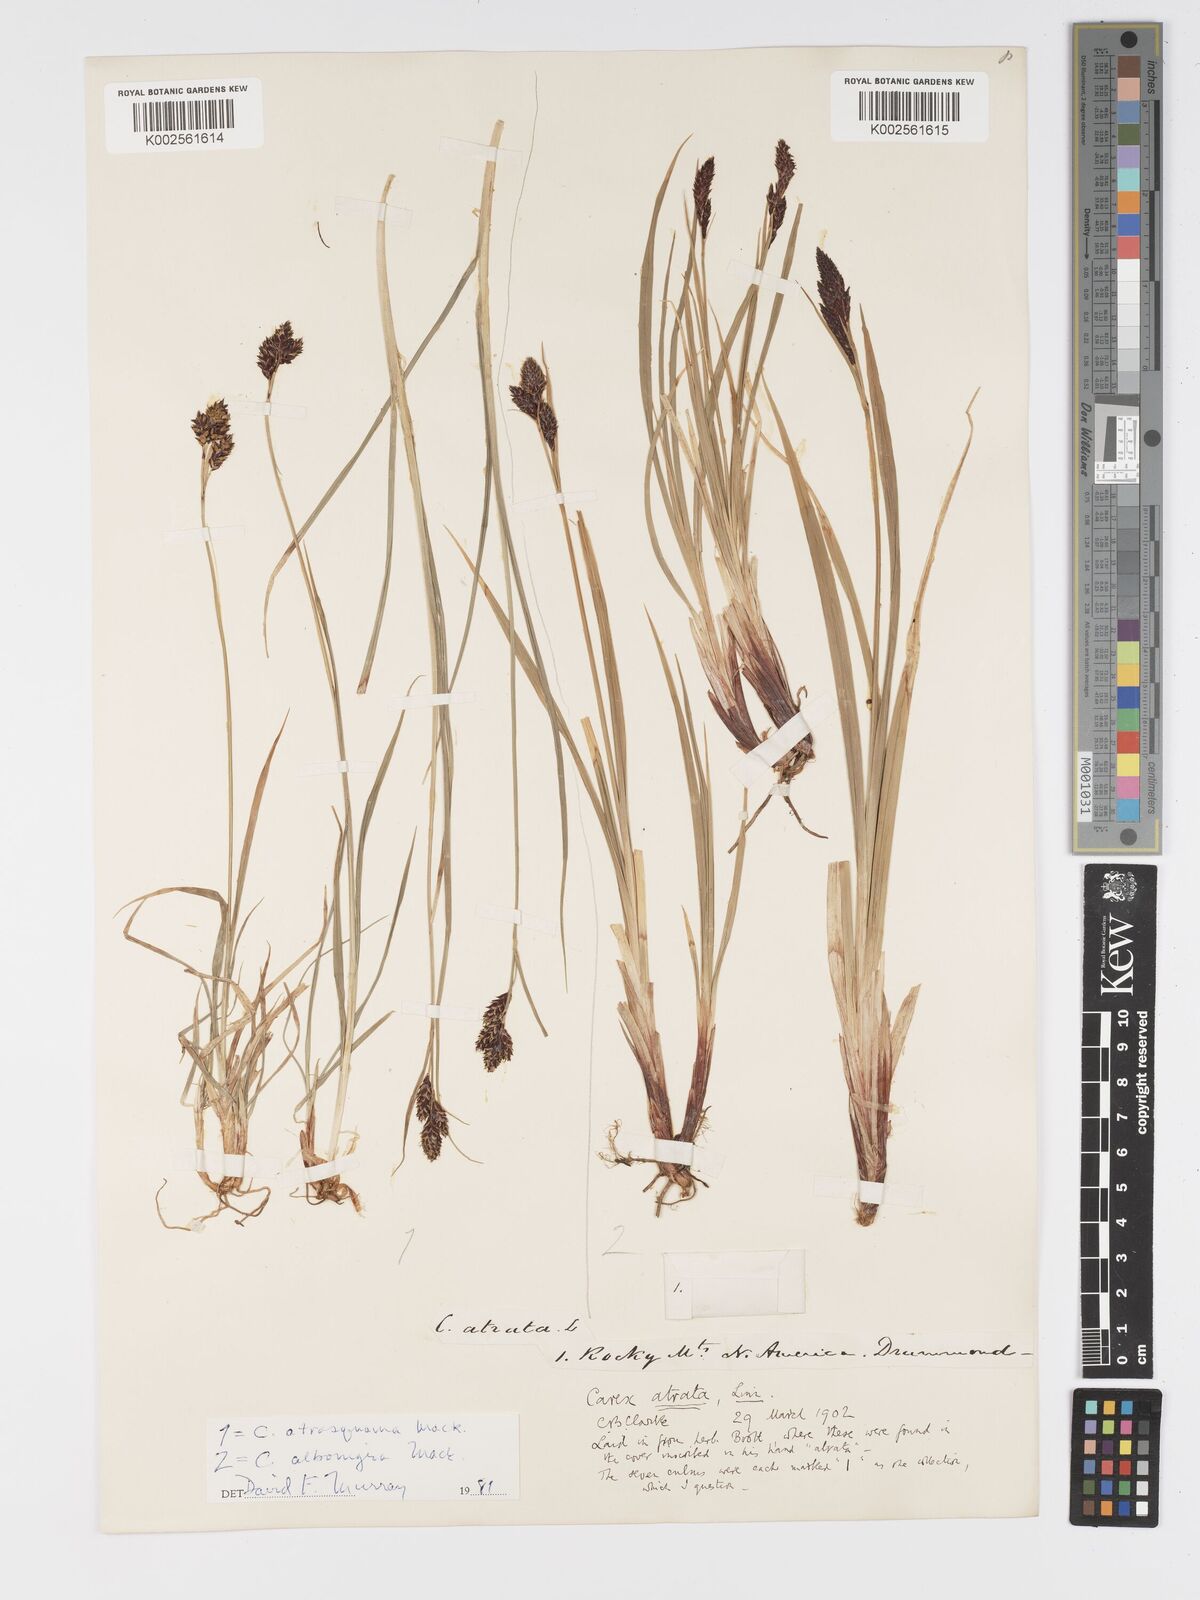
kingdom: Plantae
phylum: Tracheophyta
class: Liliopsida
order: Poales
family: Cyperaceae
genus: Carex
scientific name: Carex atrosquama
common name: Black-scale sedge
